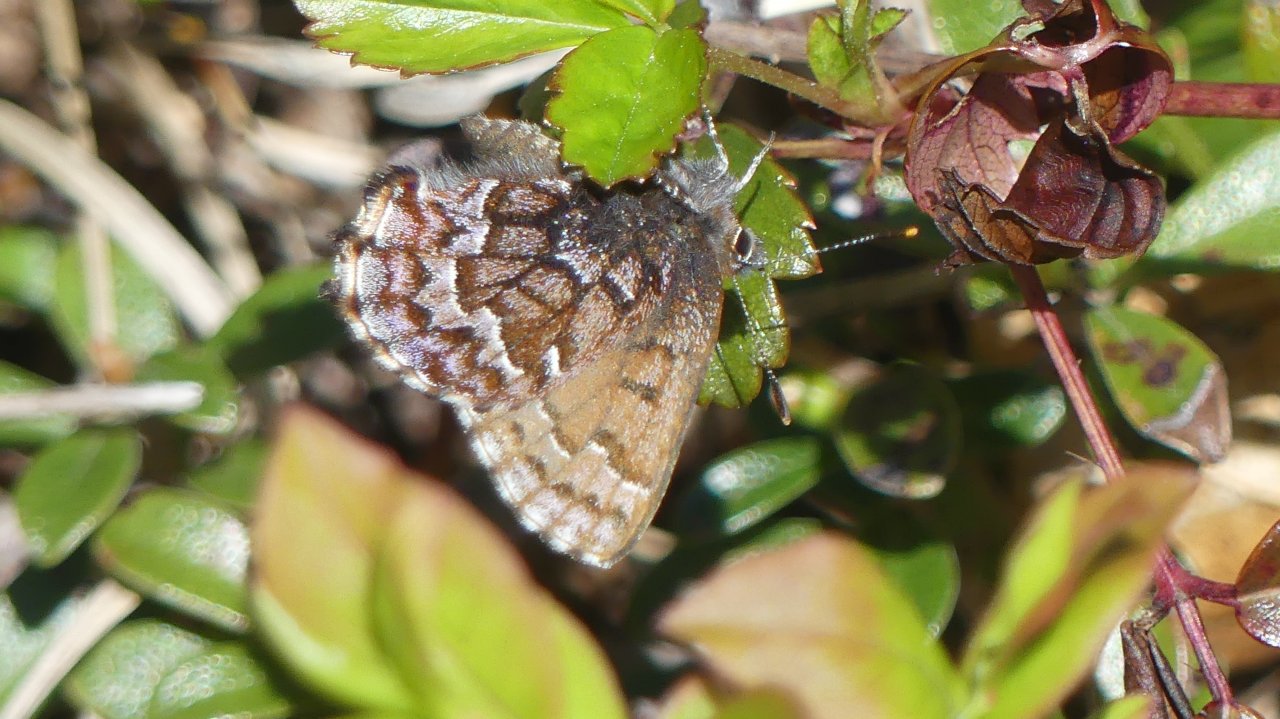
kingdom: Animalia
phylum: Arthropoda
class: Insecta
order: Lepidoptera
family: Lycaenidae
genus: Incisalia
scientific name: Incisalia niphon
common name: Eastern Pine Elfin
